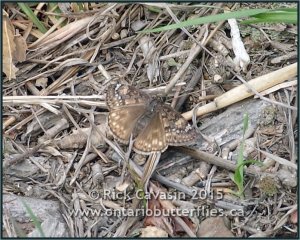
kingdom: Animalia
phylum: Arthropoda
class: Insecta
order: Lepidoptera
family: Hesperiidae
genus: Gesta
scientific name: Gesta
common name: Juvenal's Duskywing
